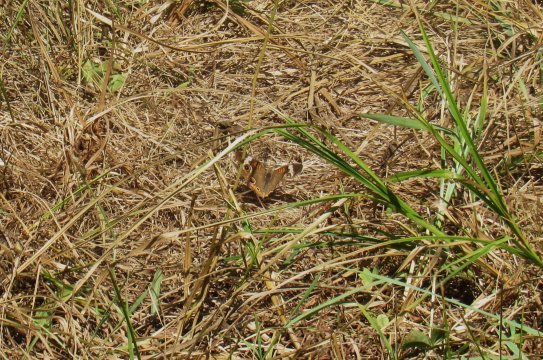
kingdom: Animalia
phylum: Arthropoda
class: Insecta
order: Lepidoptera
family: Nymphalidae
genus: Junonia
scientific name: Junonia coenia
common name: Common Buckeye
